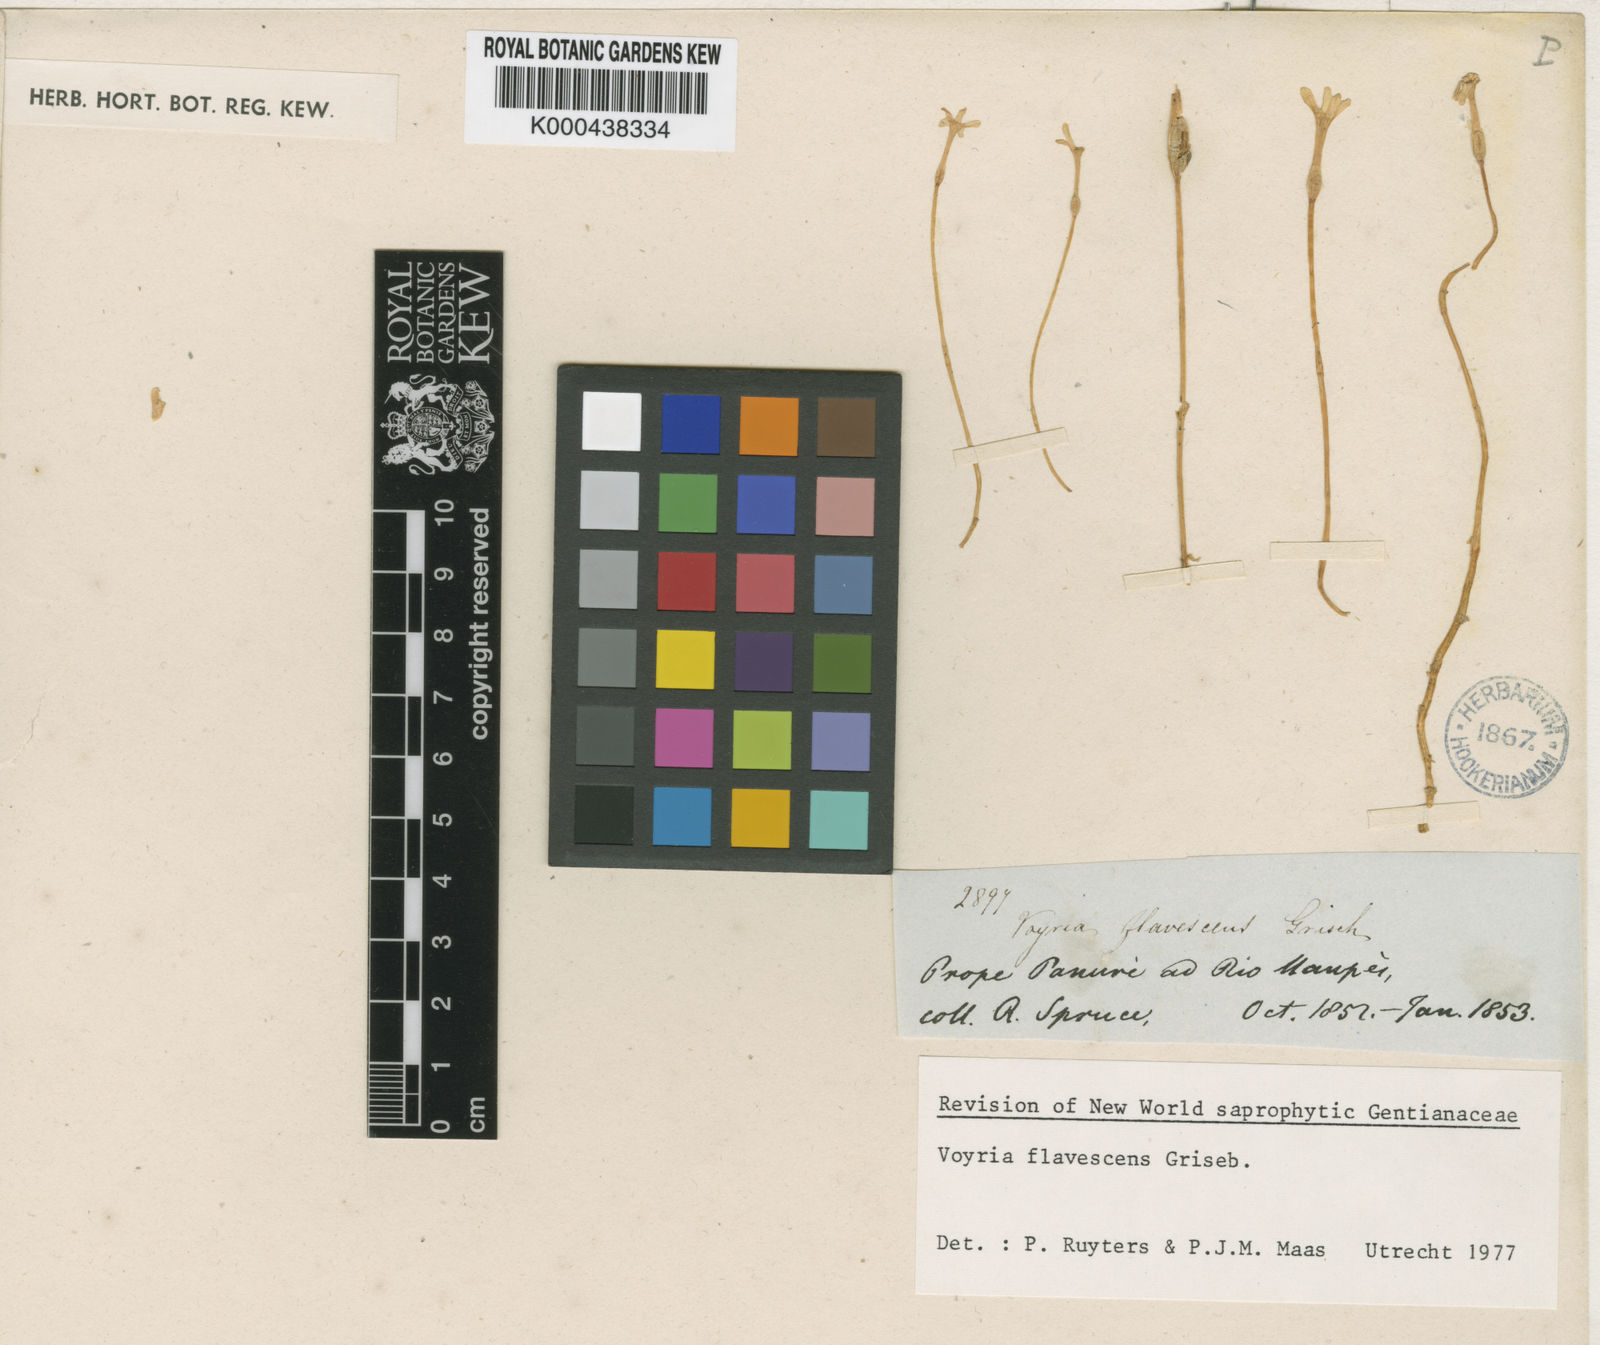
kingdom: Plantae
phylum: Tracheophyta
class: Magnoliopsida
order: Gentianales
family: Gentianaceae
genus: Voyria
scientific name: Voyria flavescens
